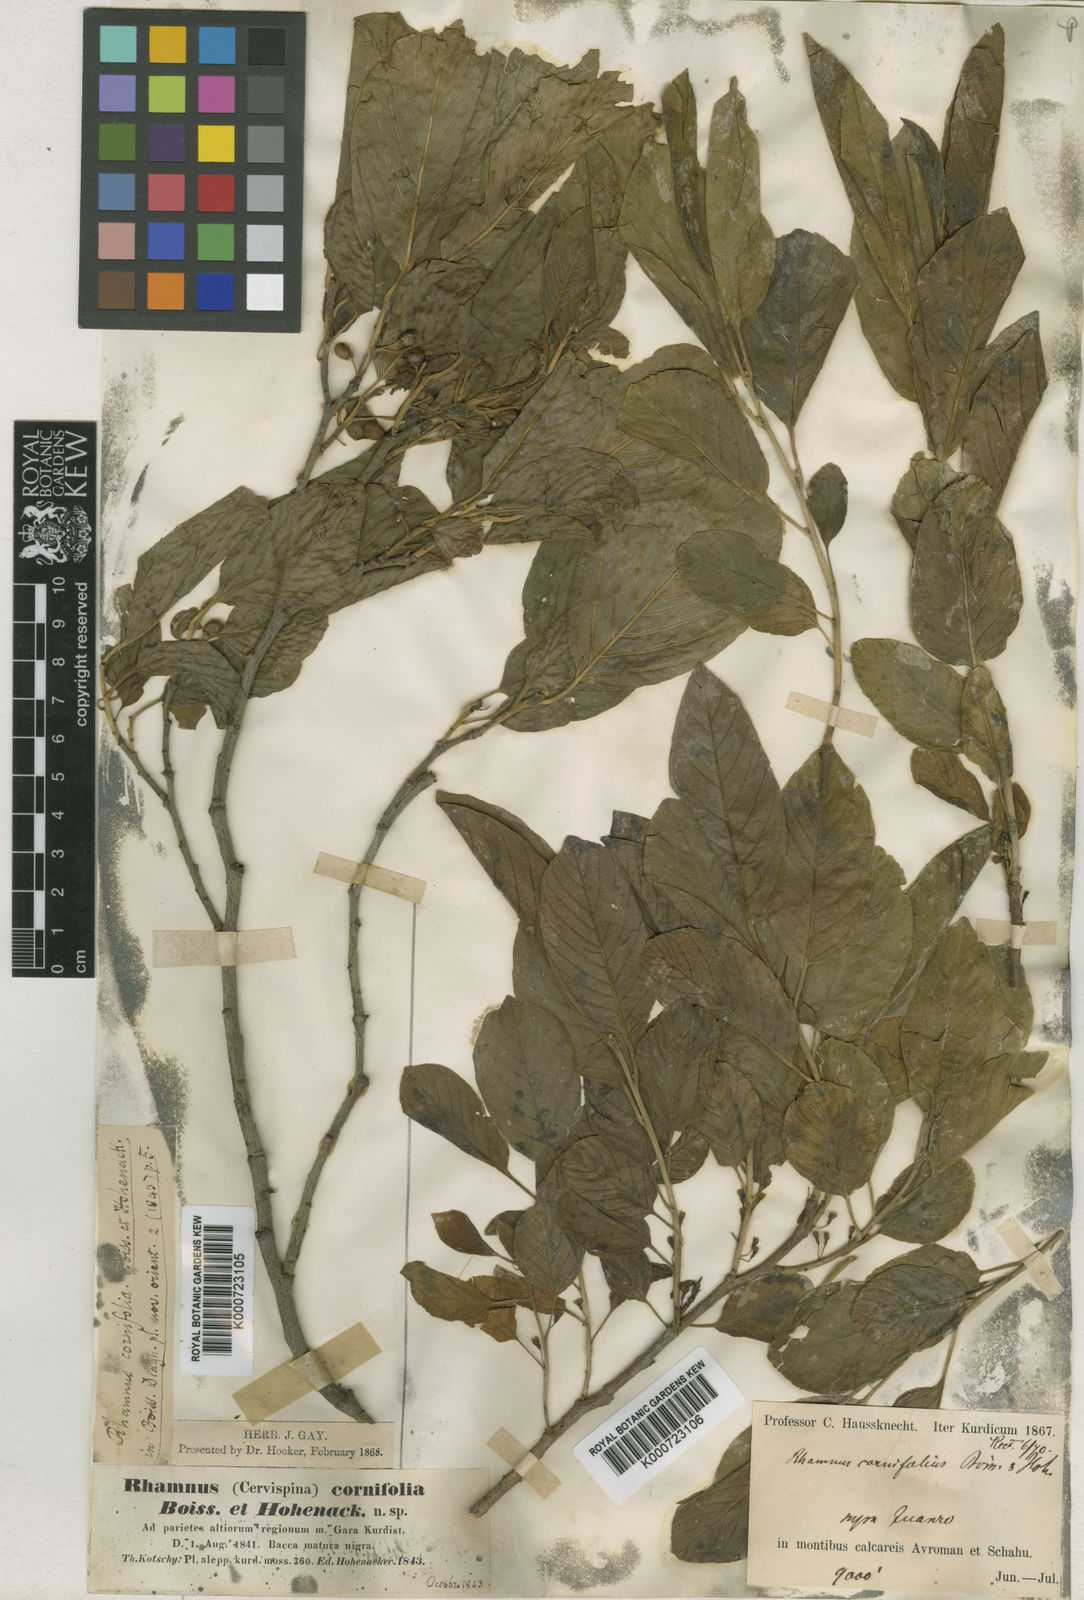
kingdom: Plantae
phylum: Tracheophyta
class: Magnoliopsida
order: Rosales
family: Rhamnaceae
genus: Atadinus
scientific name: Atadinus cornifolius
